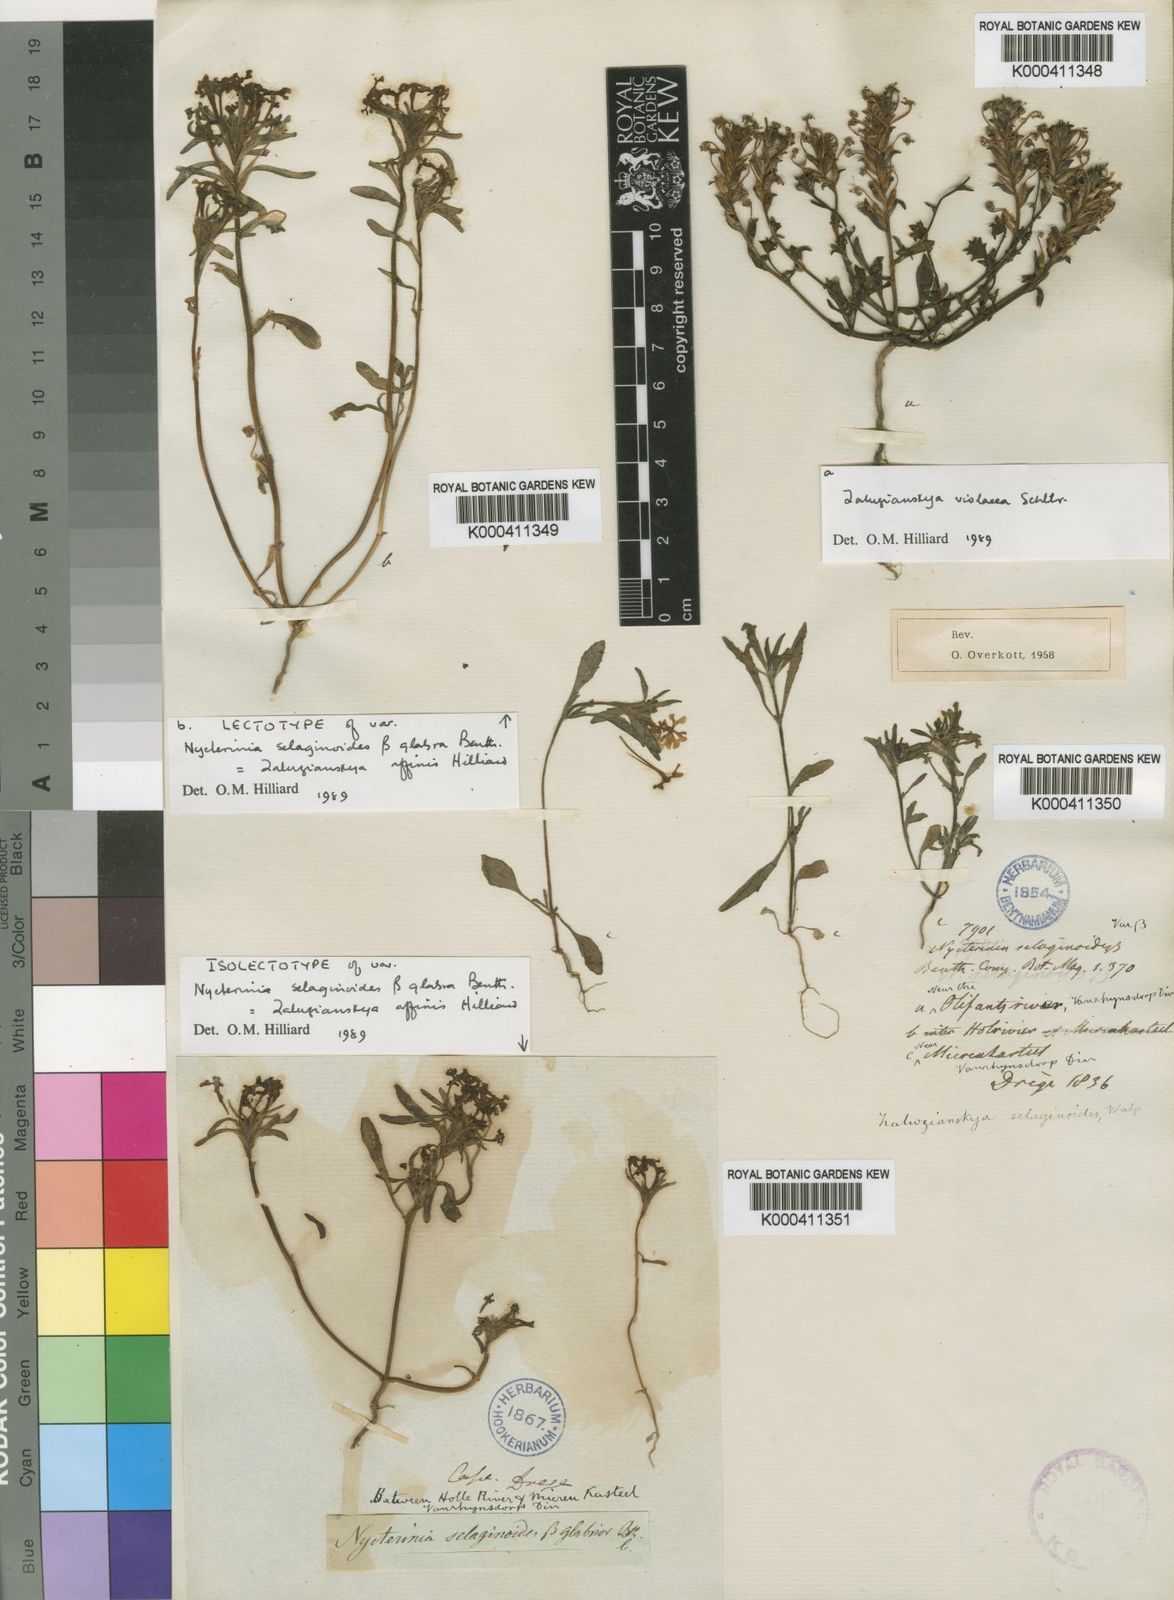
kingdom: Plantae
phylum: Tracheophyta
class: Magnoliopsida
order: Lamiales
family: Scrophulariaceae
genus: Zaluzianskya
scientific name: Zaluzianskya villosa
